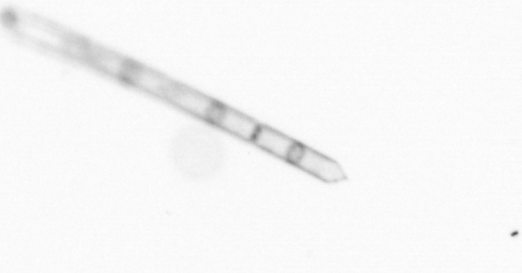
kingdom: Chromista
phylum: Ochrophyta
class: Bacillariophyceae
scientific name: Bacillariophyceae
